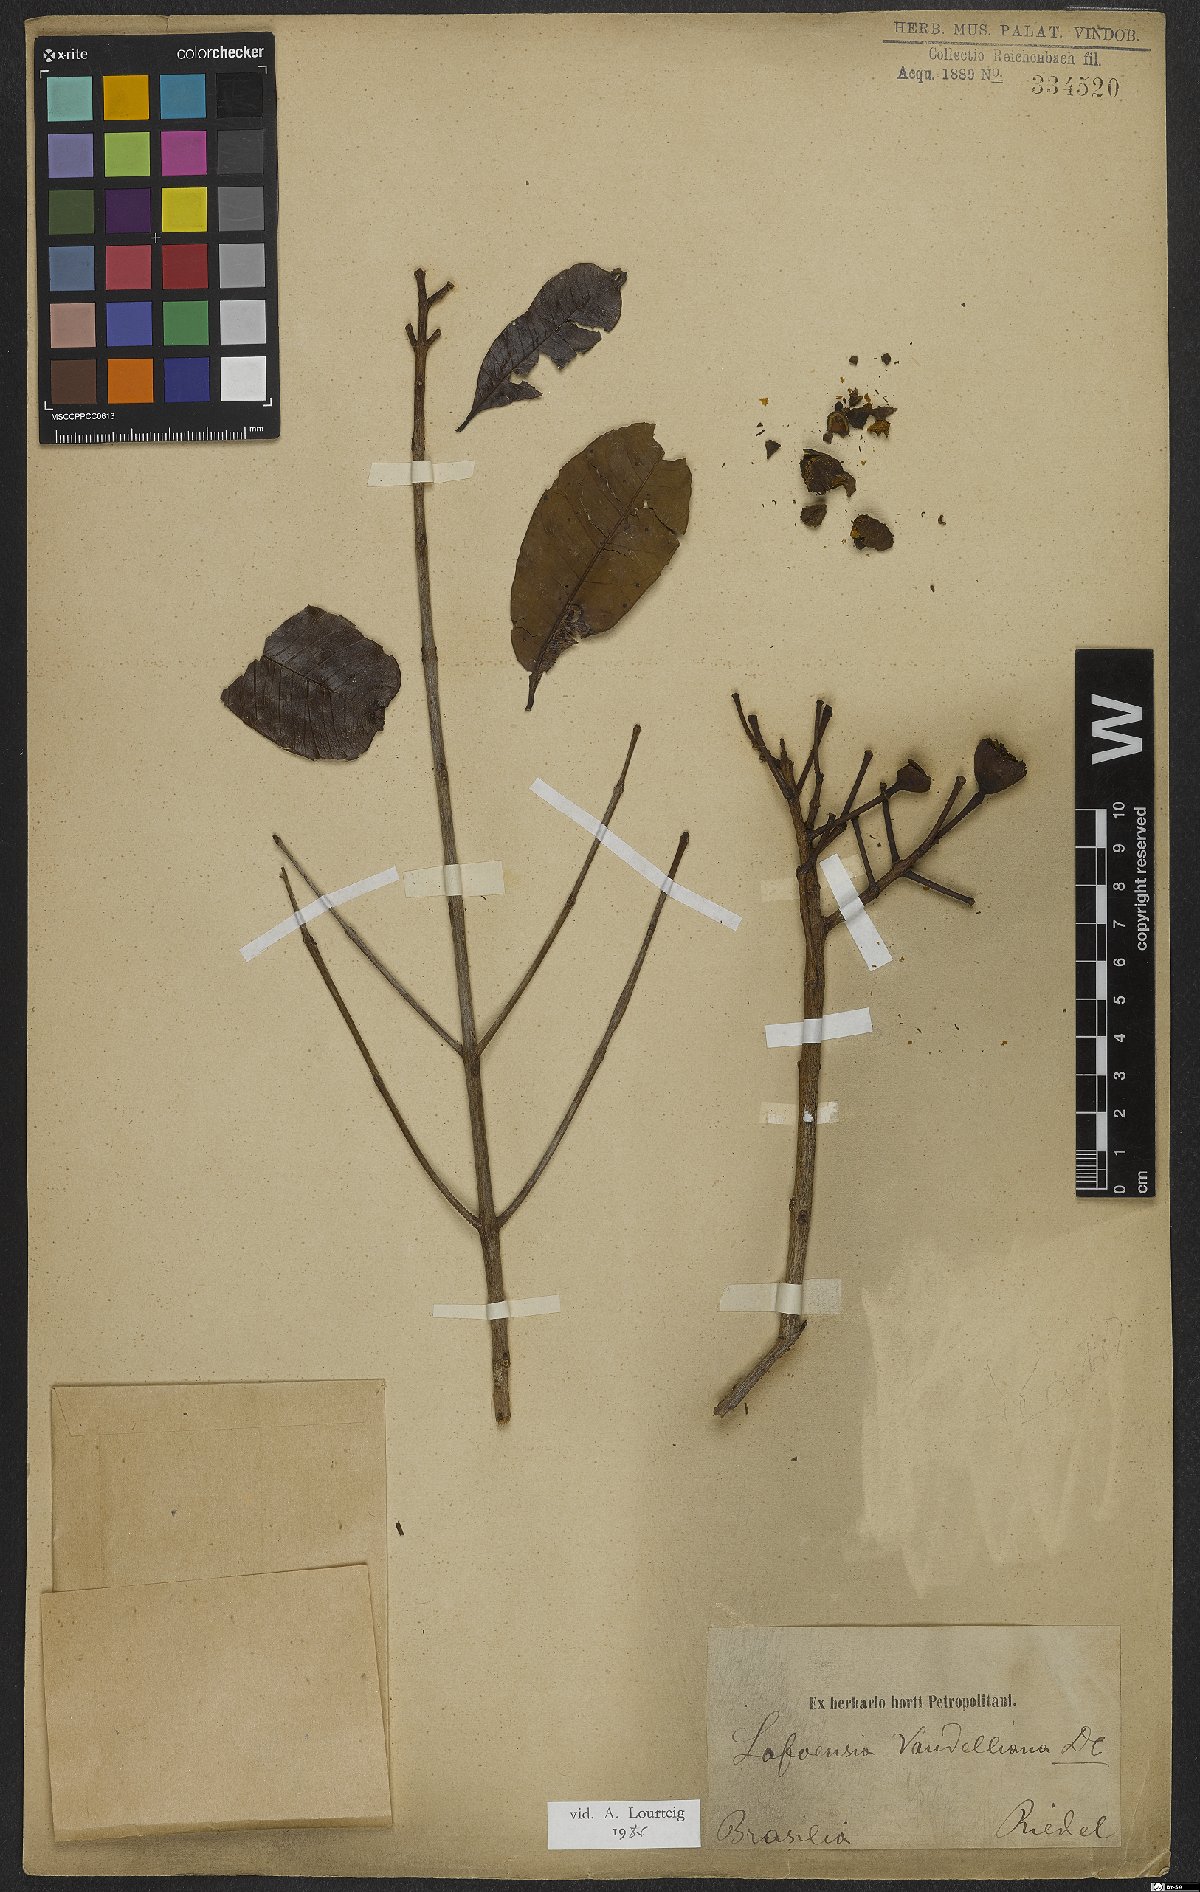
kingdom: Plantae
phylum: Tracheophyta
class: Magnoliopsida
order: Myrtales
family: Lythraceae
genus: Lafoensia
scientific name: Lafoensia vandelliana
